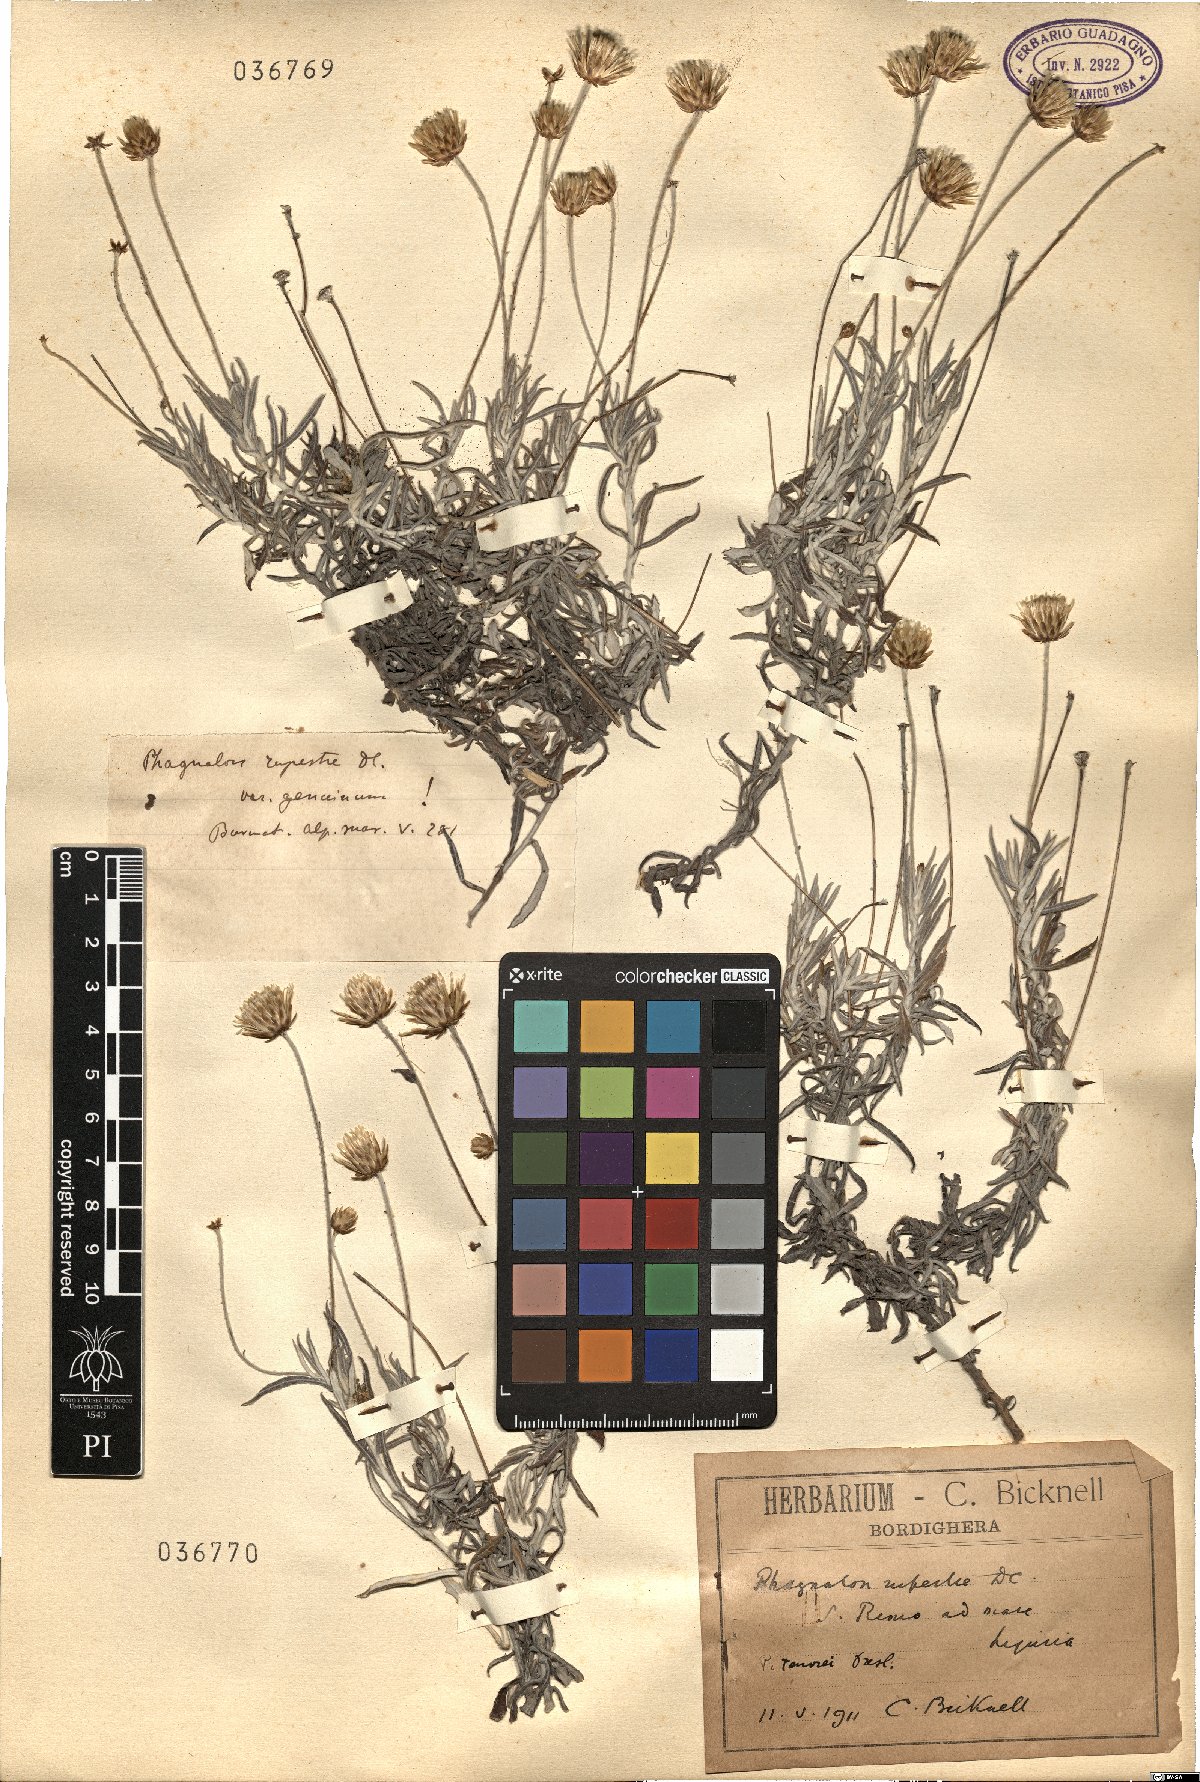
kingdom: Plantae
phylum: Tracheophyta
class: Magnoliopsida
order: Asterales
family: Asteraceae
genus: Phagnalon
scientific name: Phagnalon rupestre
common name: Rock phagnalon
